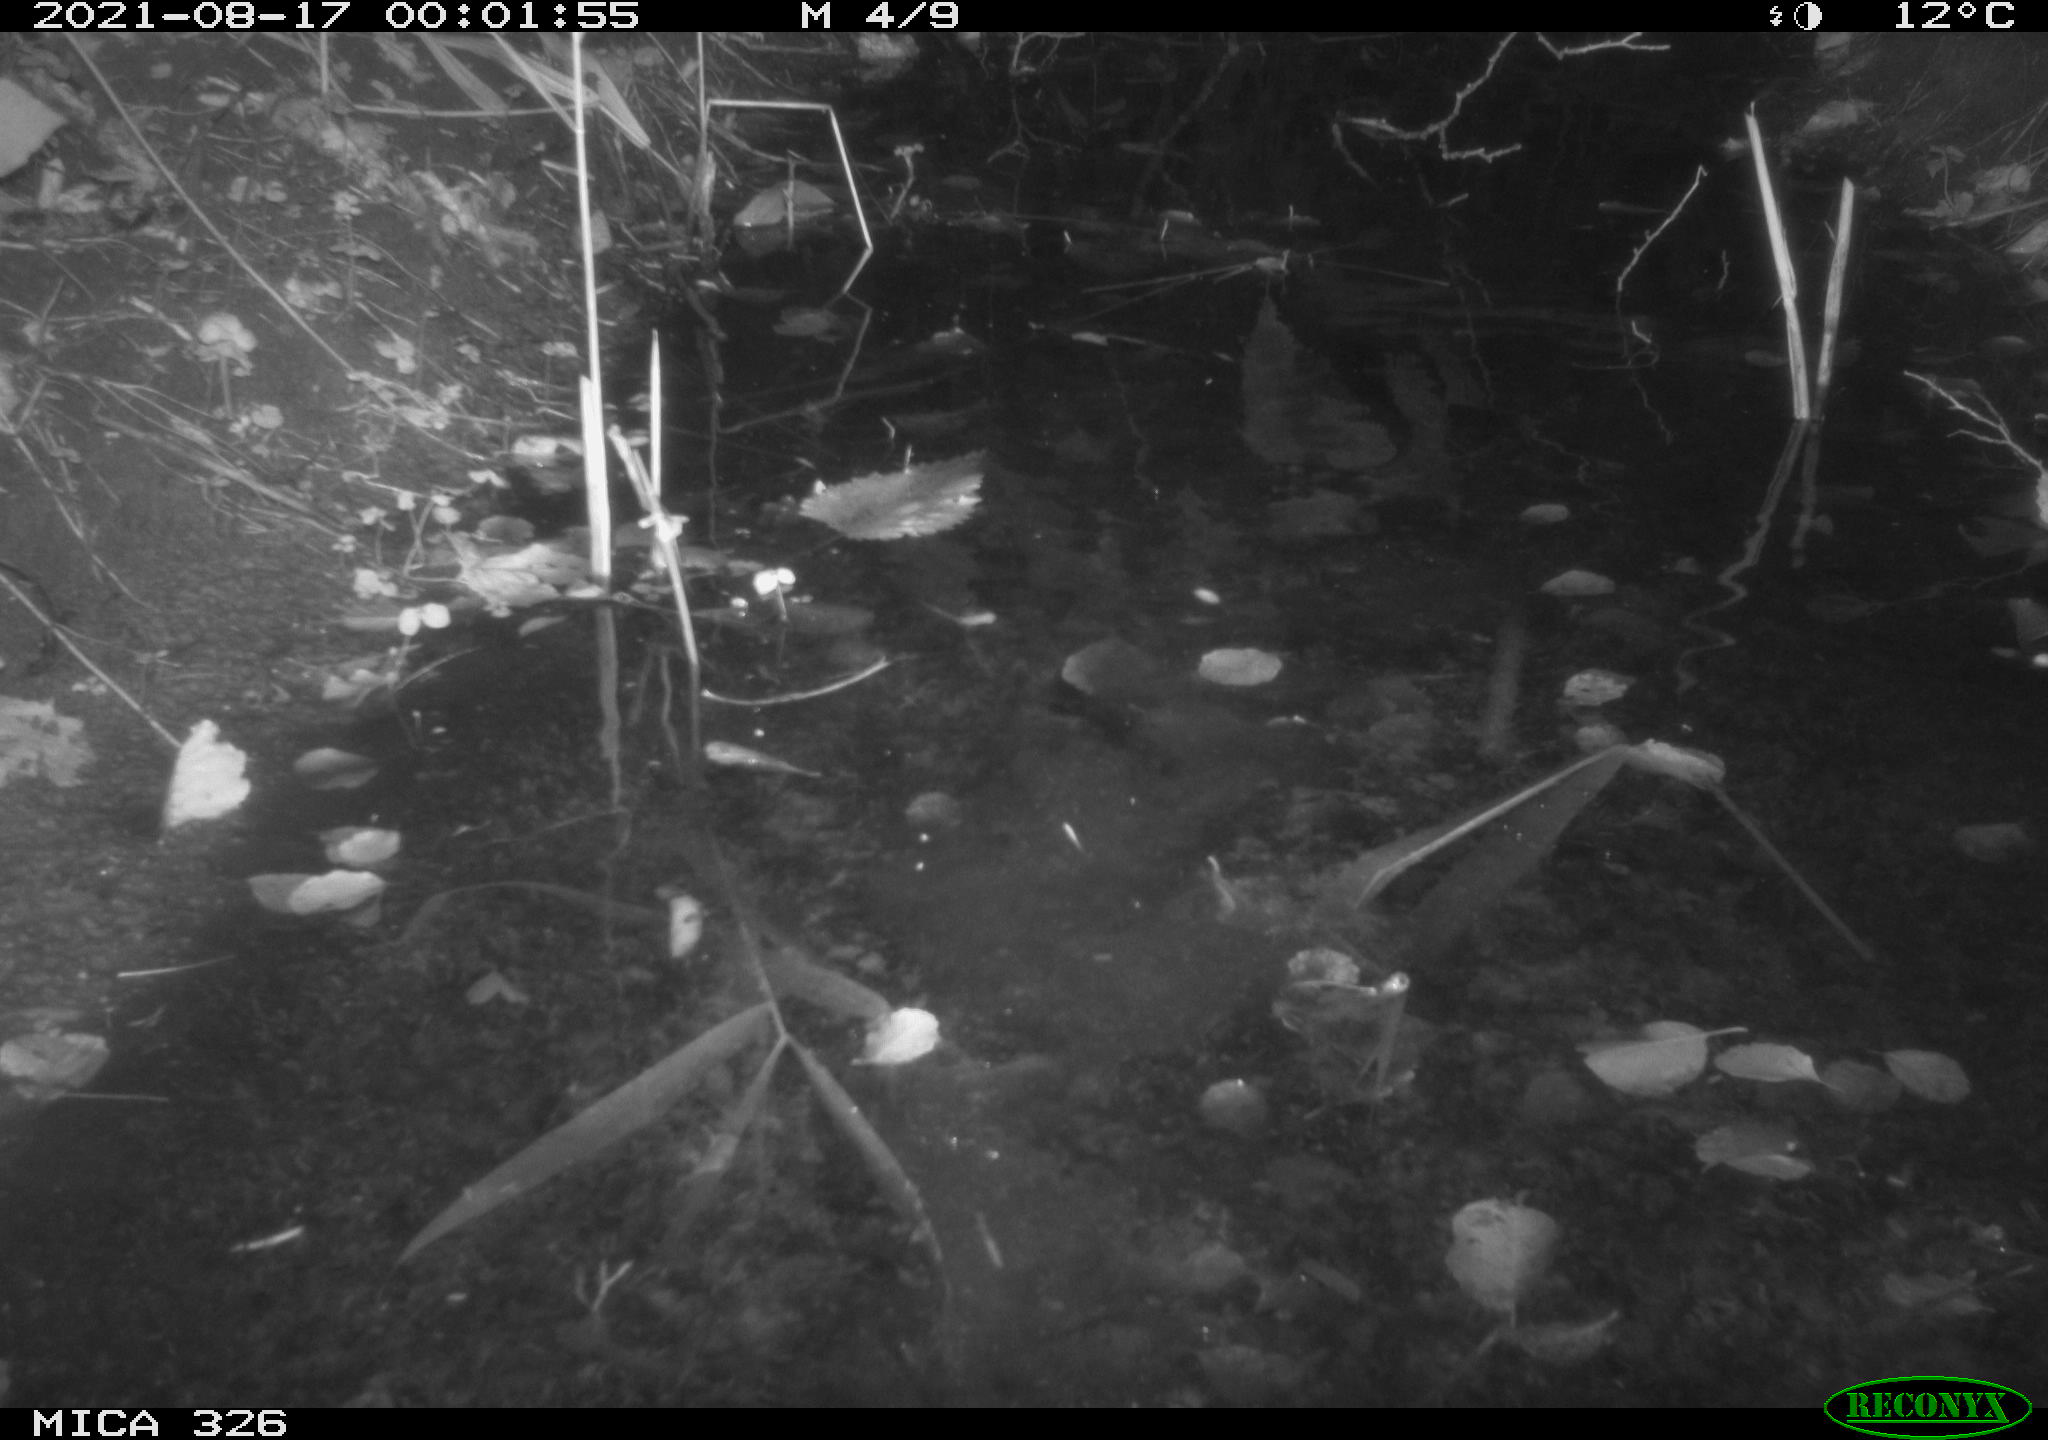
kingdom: Animalia
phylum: Chordata
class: Mammalia
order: Rodentia
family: Myocastoridae
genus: Myocastor
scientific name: Myocastor coypus
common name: Coypu
